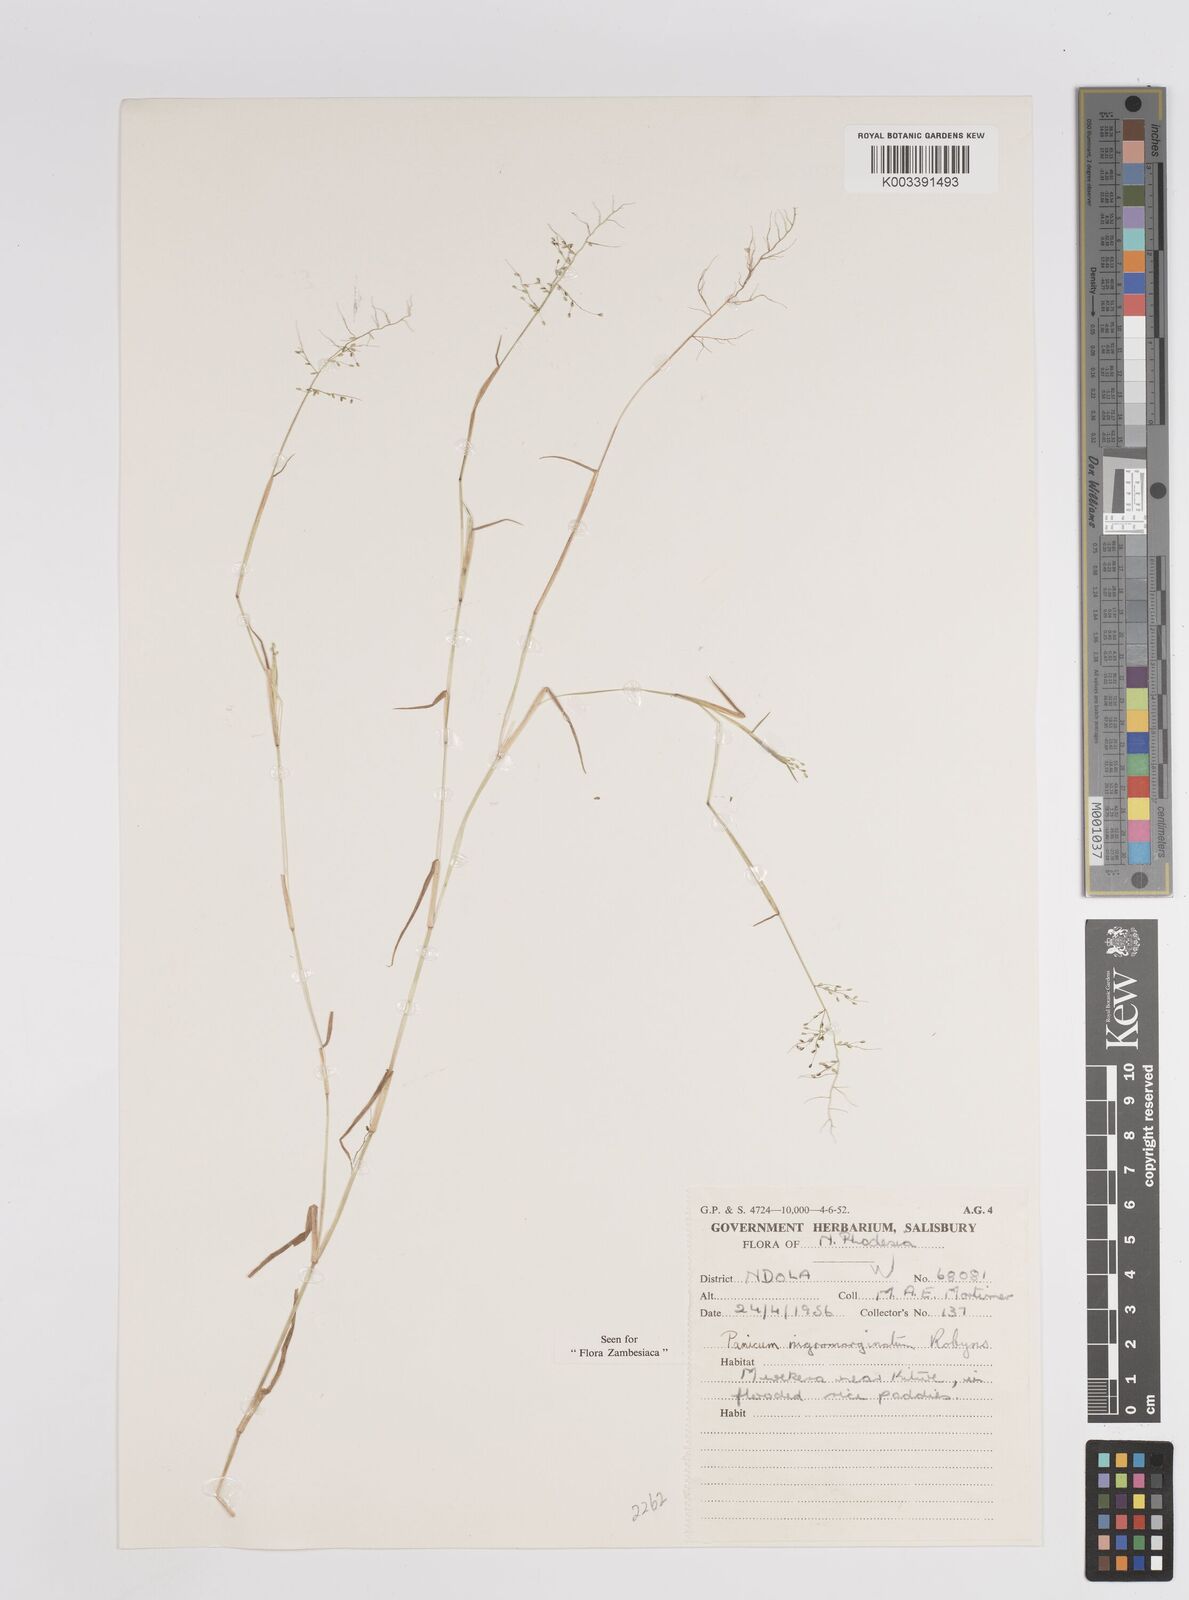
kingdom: Plantae
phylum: Tracheophyta
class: Liliopsida
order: Poales
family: Poaceae
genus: Adenochloa
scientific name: Adenochloa nigromarginata
